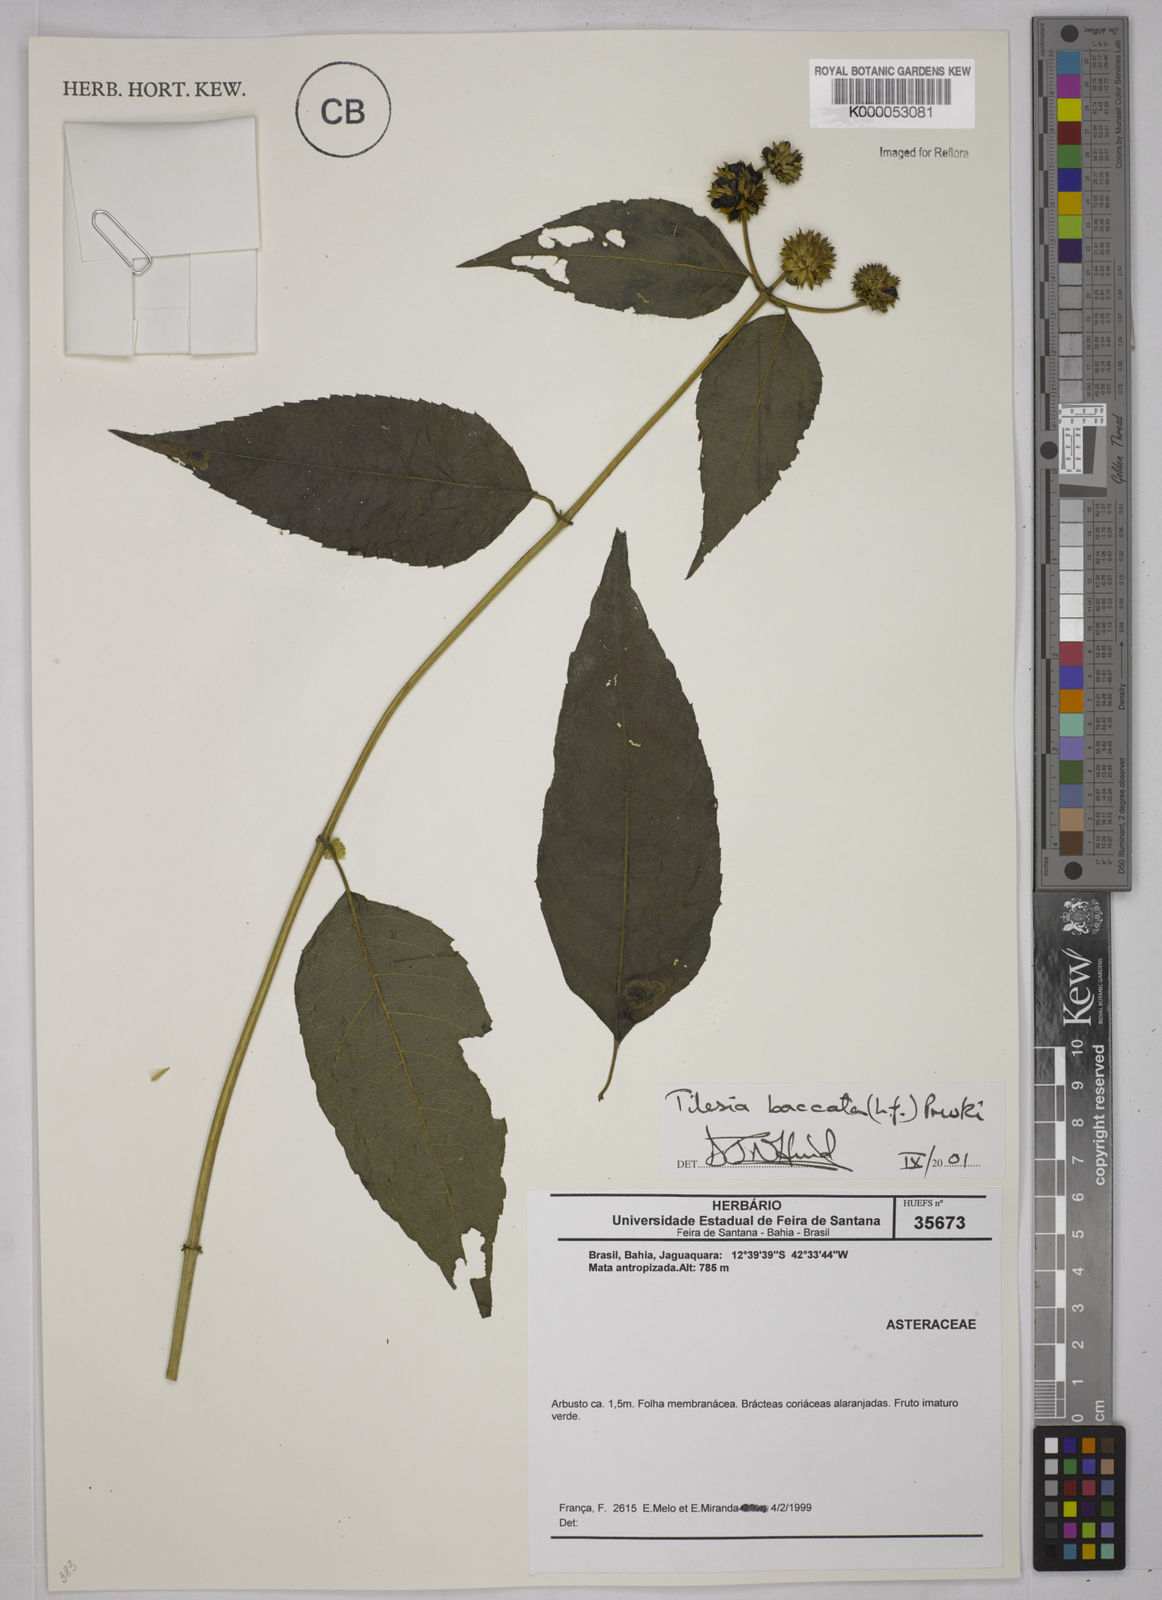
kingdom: Plantae
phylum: Tracheophyta
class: Magnoliopsida
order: Asterales
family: Asteraceae
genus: Tilesia
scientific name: Tilesia baccata
